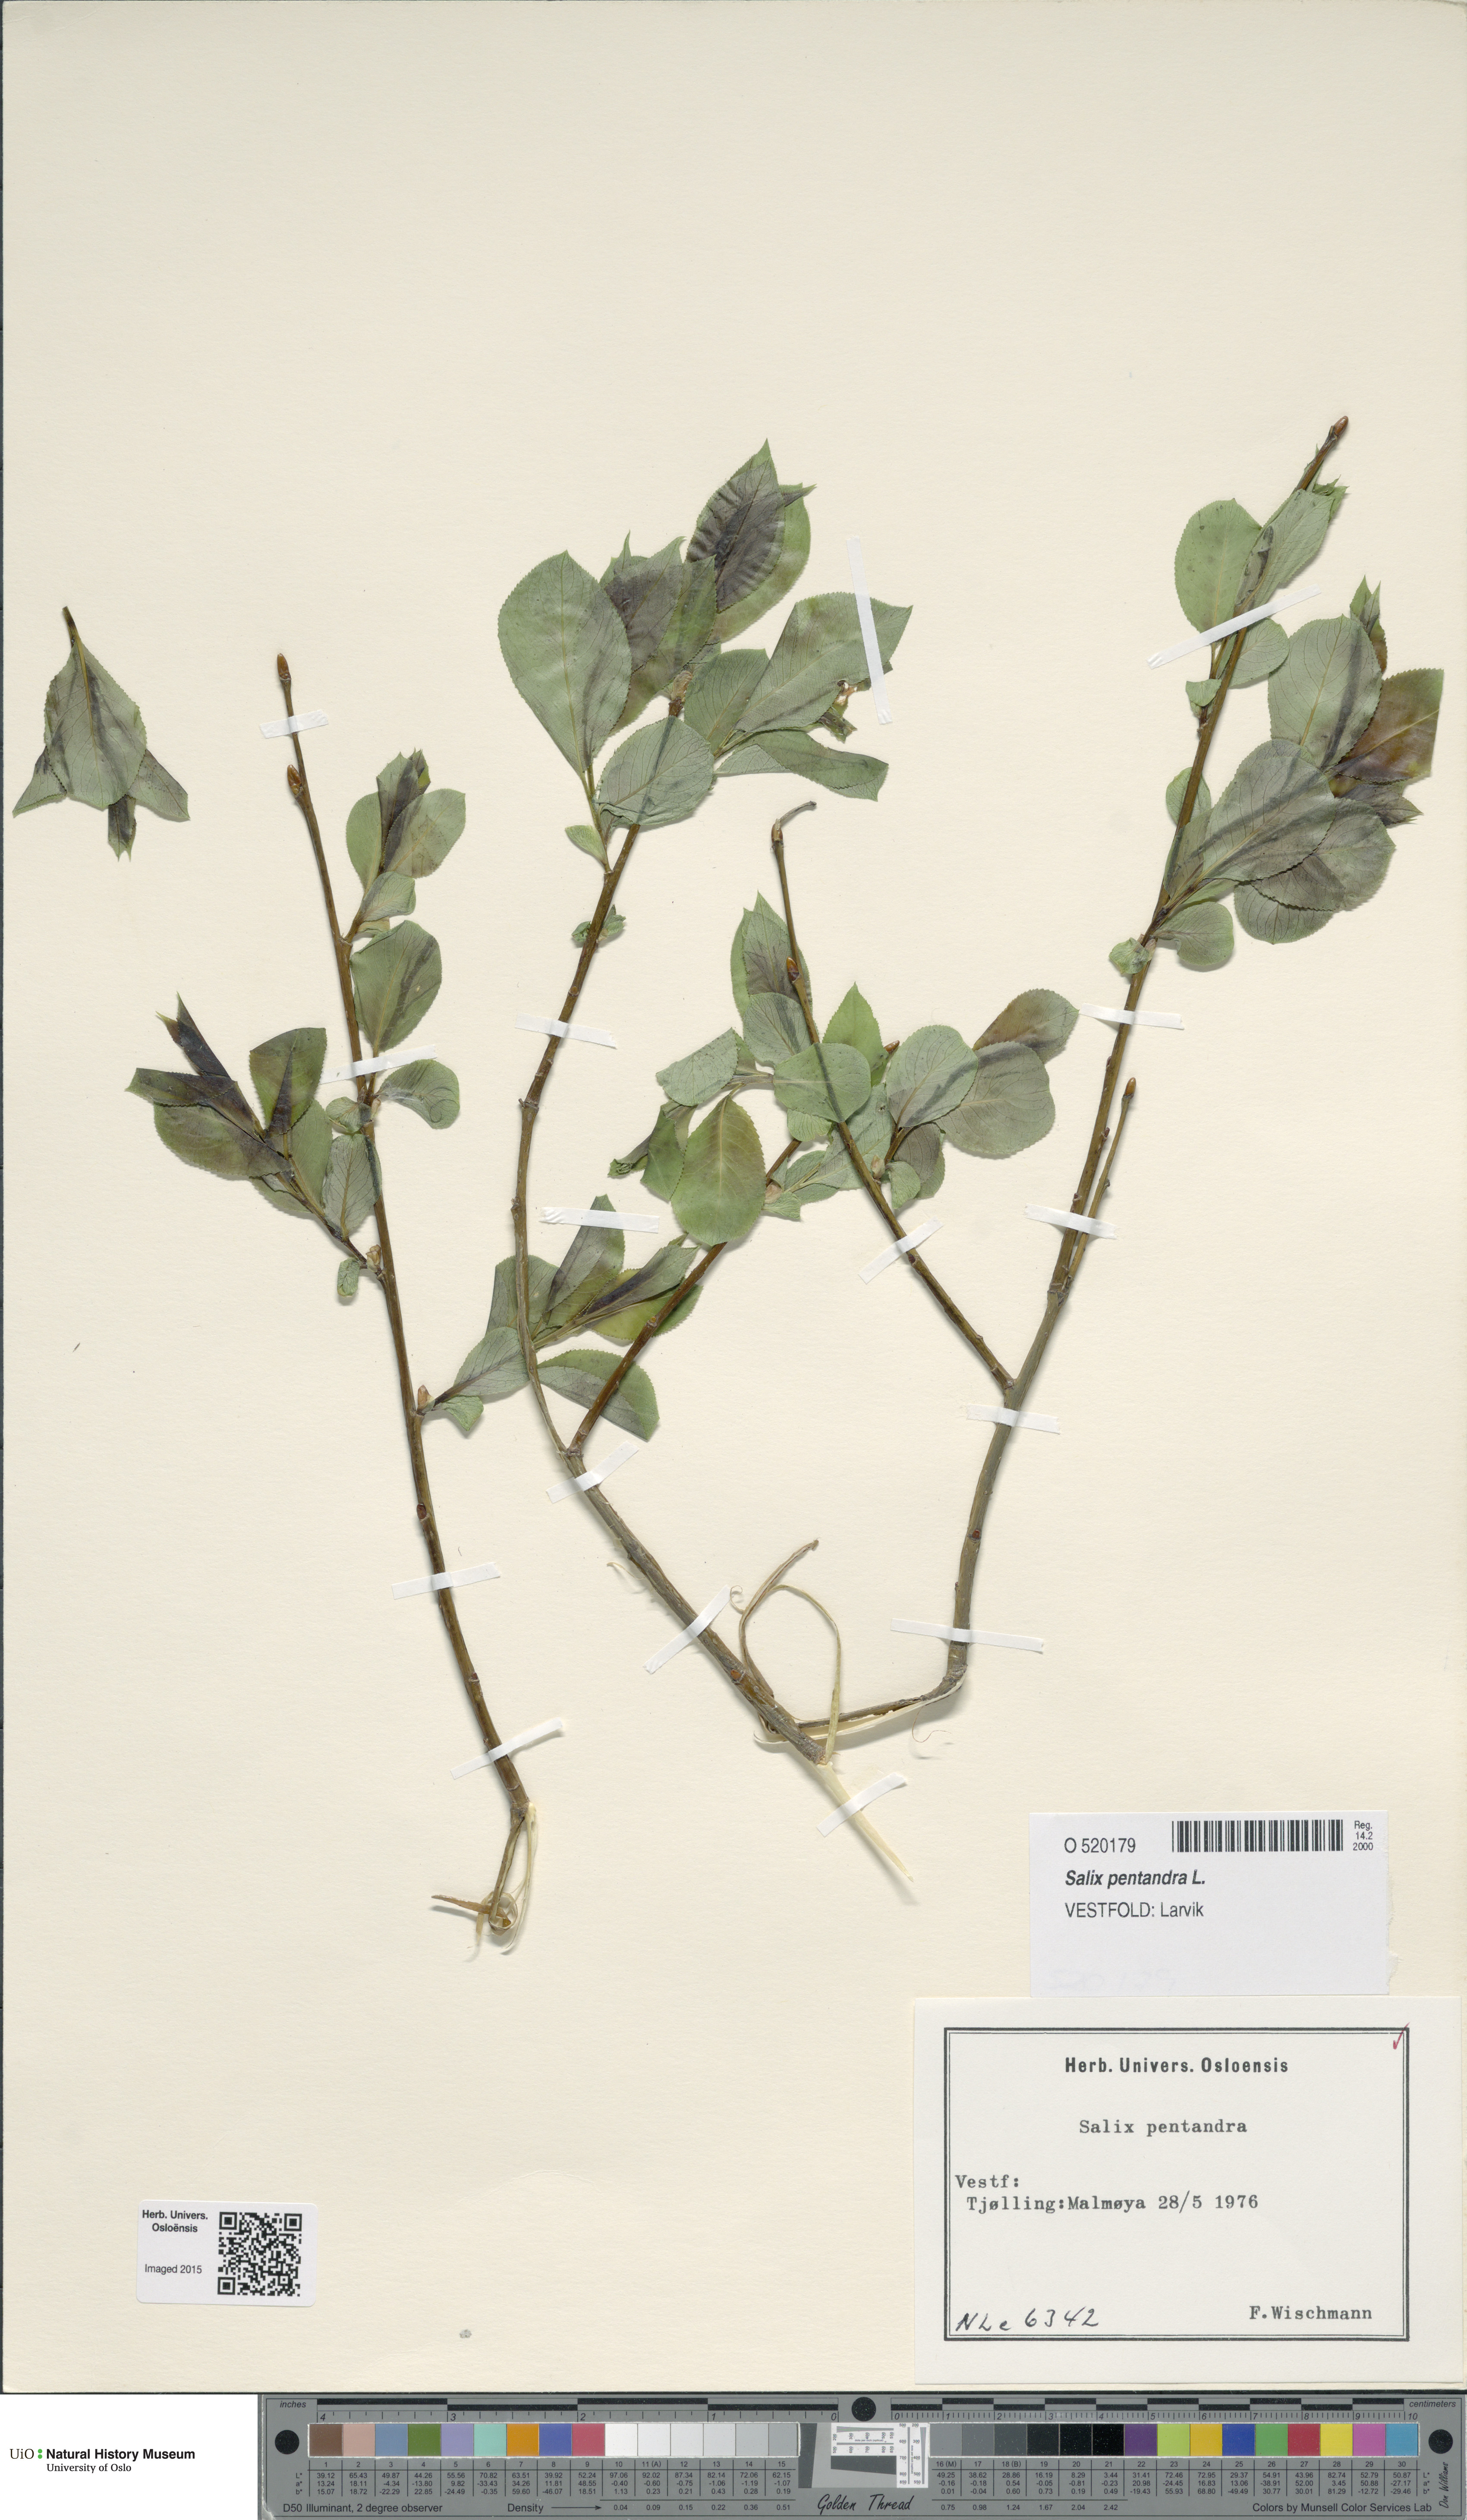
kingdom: Plantae
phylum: Tracheophyta
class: Magnoliopsida
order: Malpighiales
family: Salicaceae
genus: Salix
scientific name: Salix pentandra
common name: Bay willow
